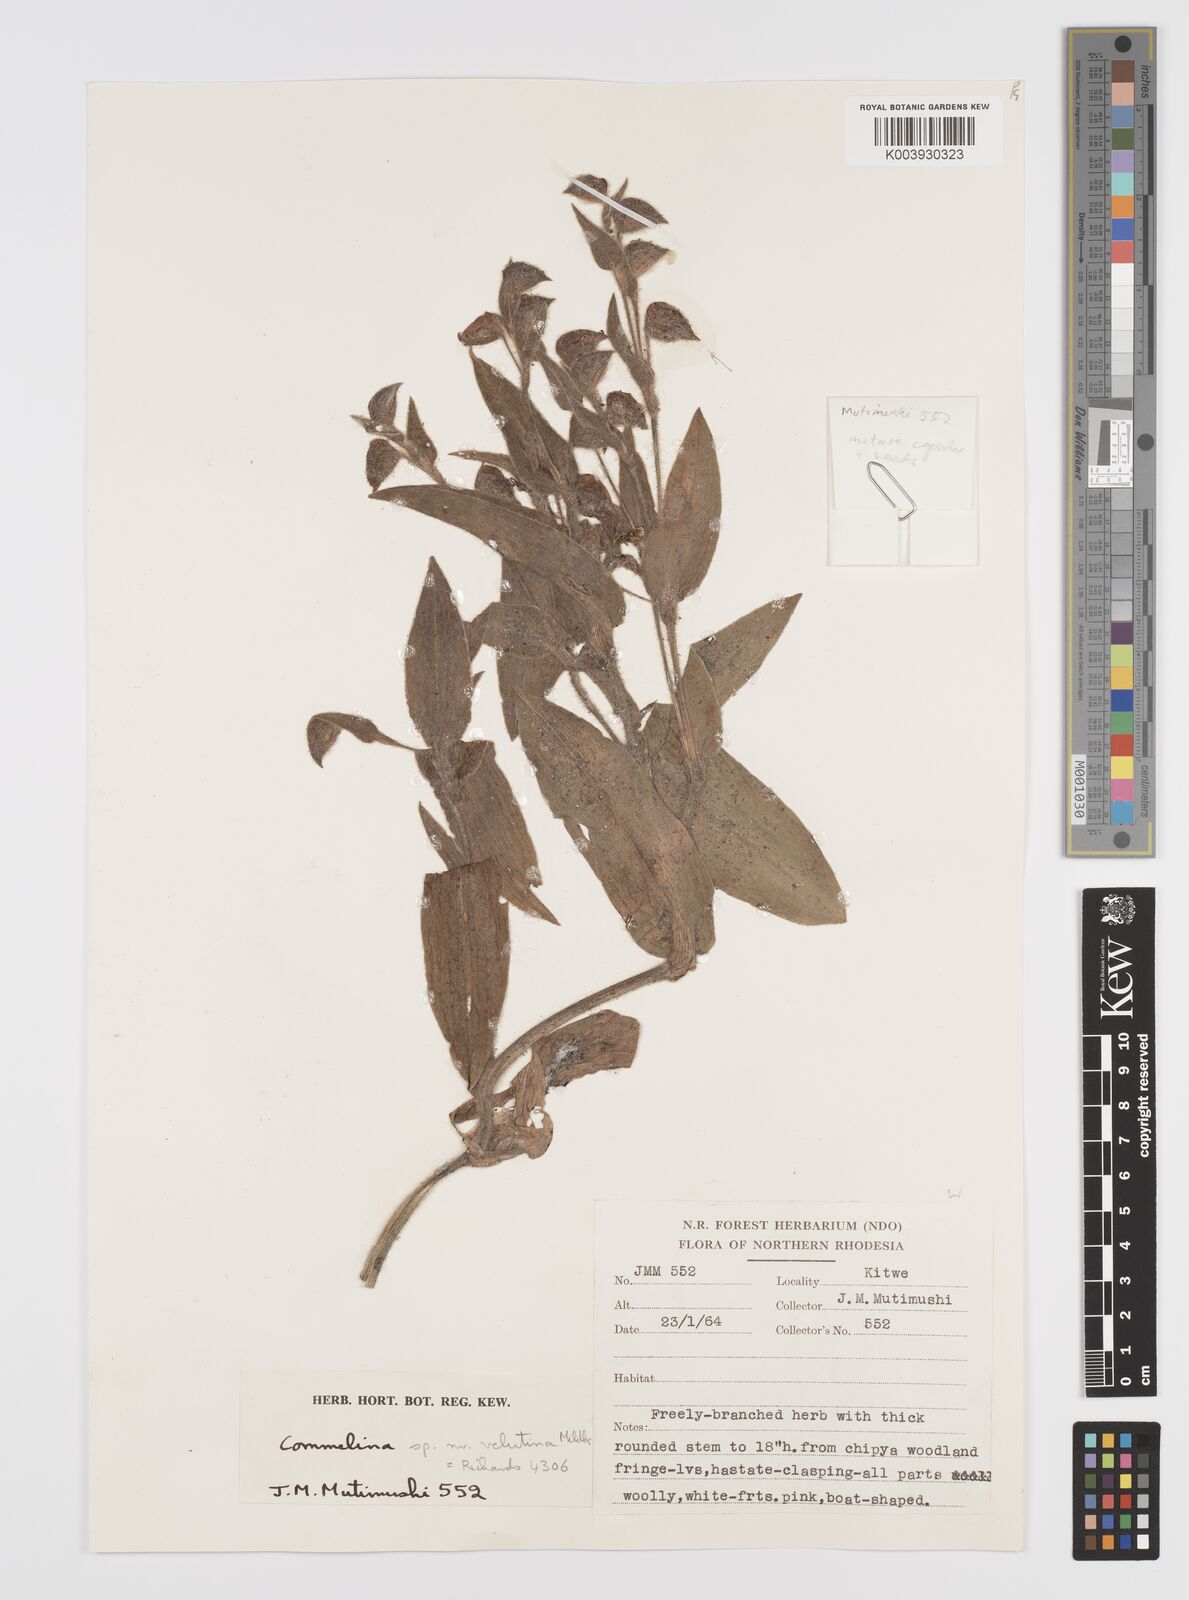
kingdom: Plantae
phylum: Tracheophyta
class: Liliopsida
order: Commelinales
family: Commelinaceae
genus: Commelina
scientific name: Commelina cecilae
